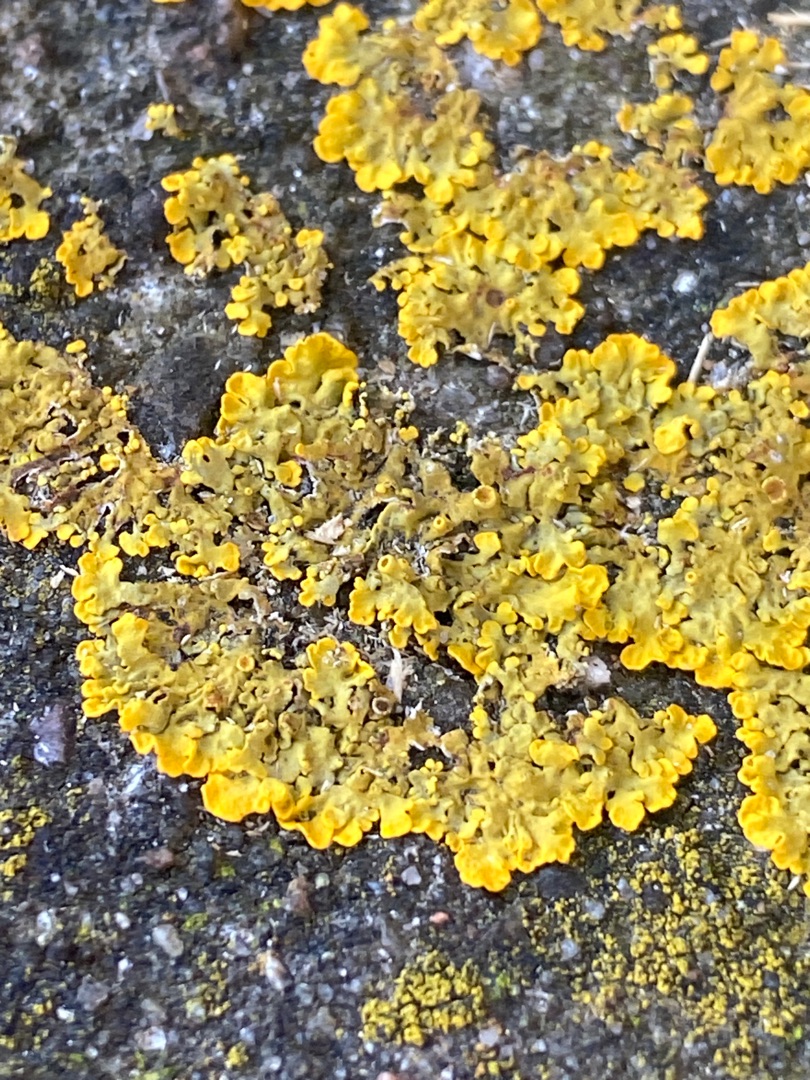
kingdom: Fungi
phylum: Ascomycota
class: Lecanoromycetes
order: Teloschistales
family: Teloschistaceae
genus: Xanthoria
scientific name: Xanthoria parietina
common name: Almindelig væggelav
